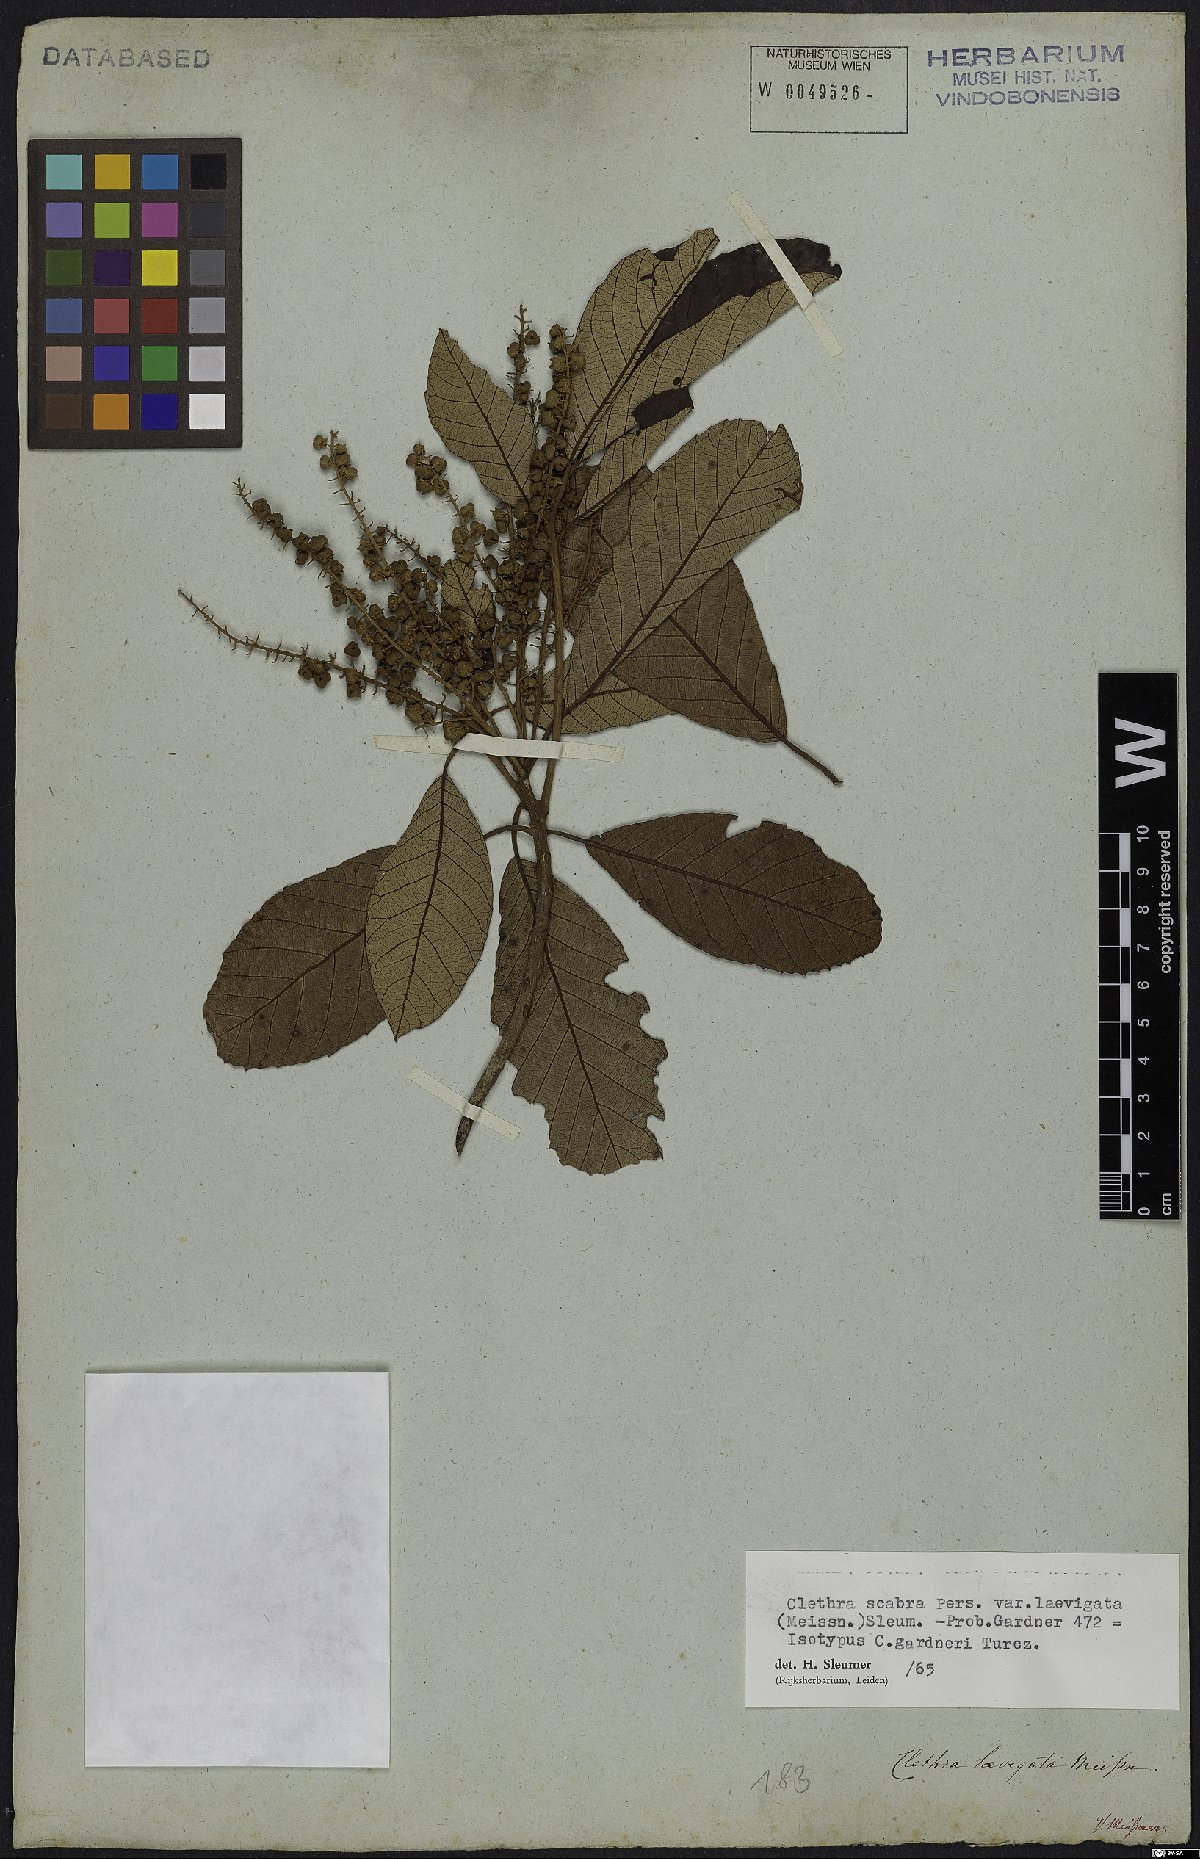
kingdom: Plantae
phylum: Tracheophyta
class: Magnoliopsida
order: Ericales
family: Clethraceae
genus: Clethra
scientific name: Clethra scabra
